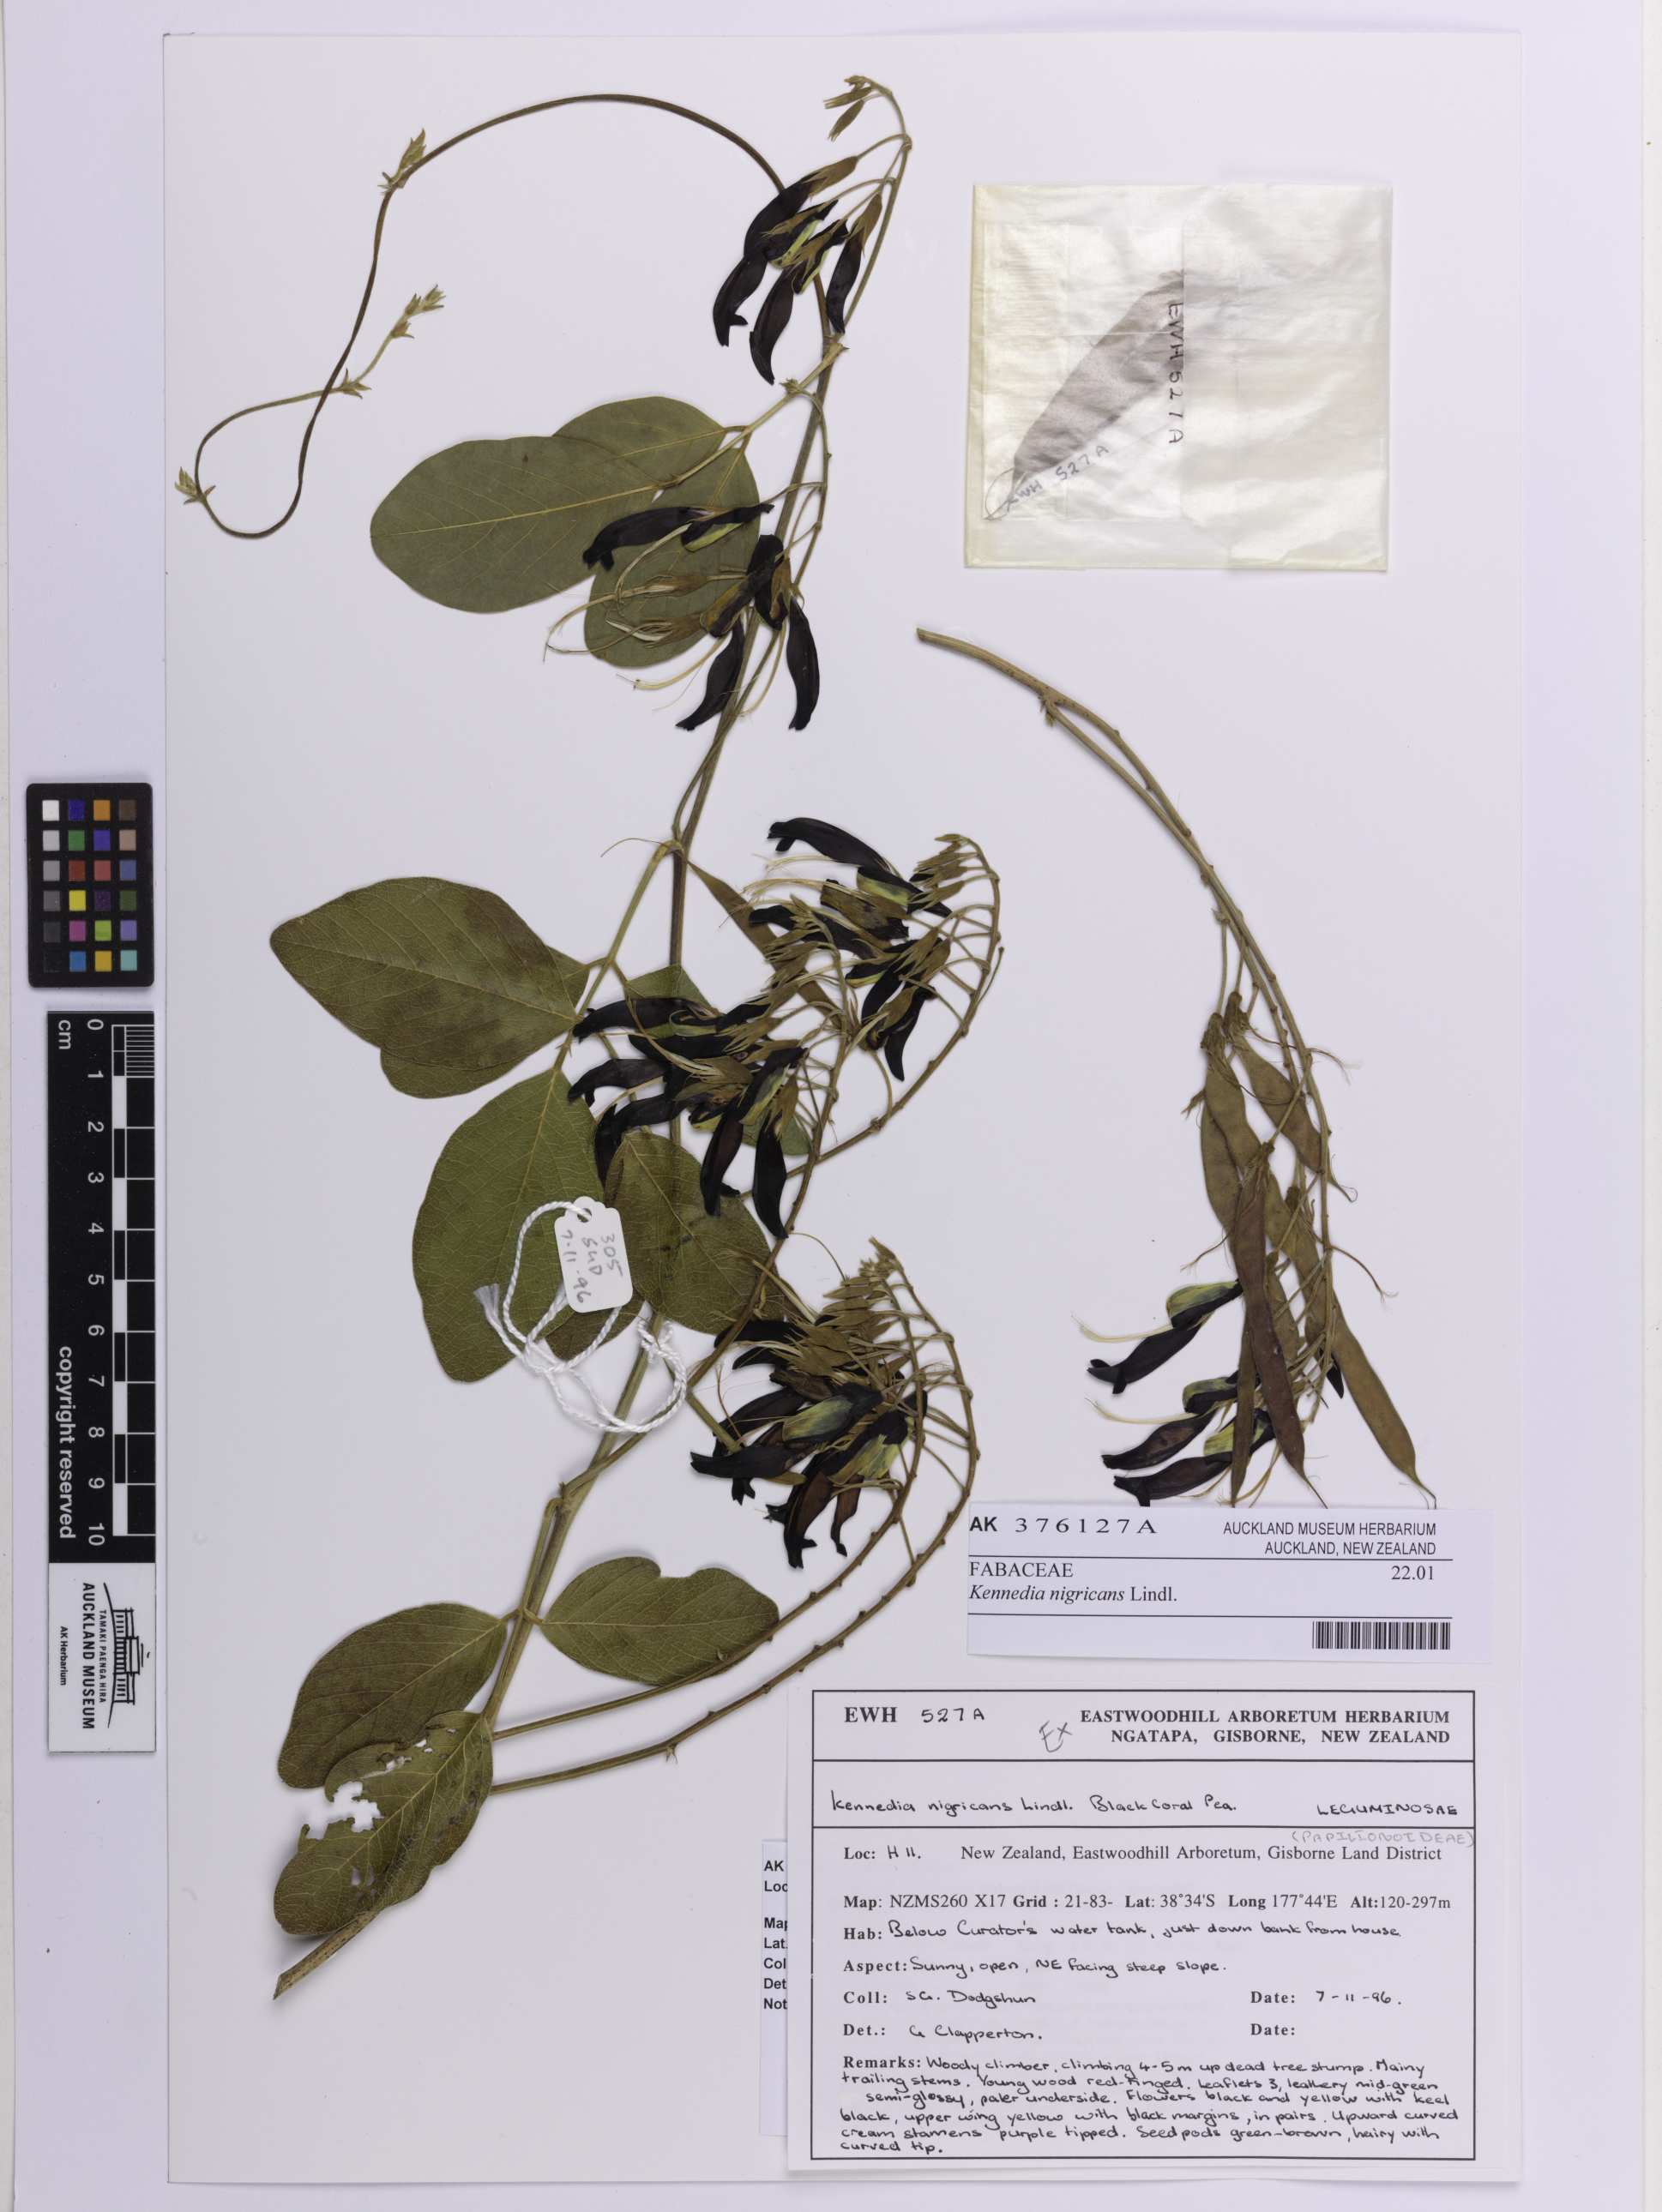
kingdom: Plantae
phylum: Tracheophyta
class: Magnoliopsida
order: Fabales
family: Fabaceae
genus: Kennedia
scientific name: Kennedia nigricans
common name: Black-bean
